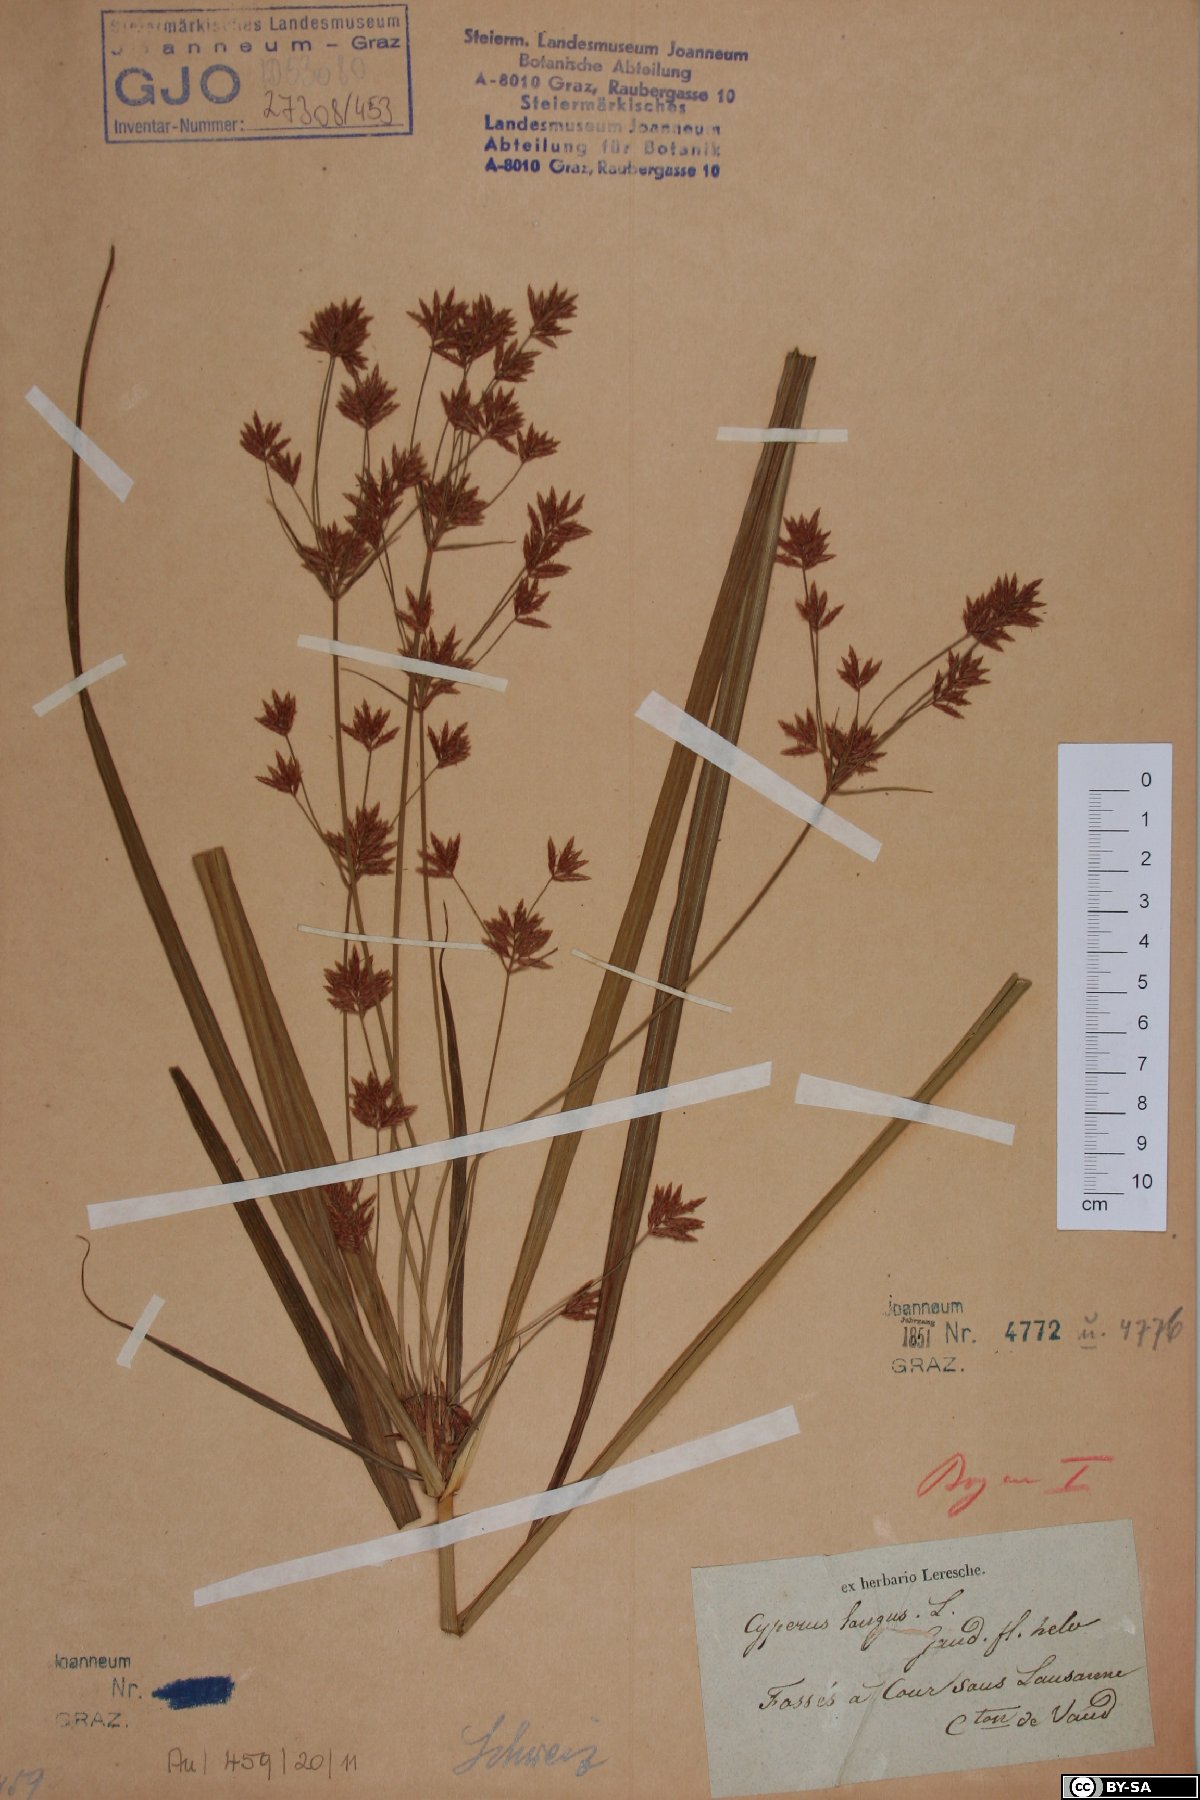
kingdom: Plantae
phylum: Tracheophyta
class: Liliopsida
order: Poales
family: Cyperaceae
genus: Cyperus
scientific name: Cyperus longus
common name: Galingale
